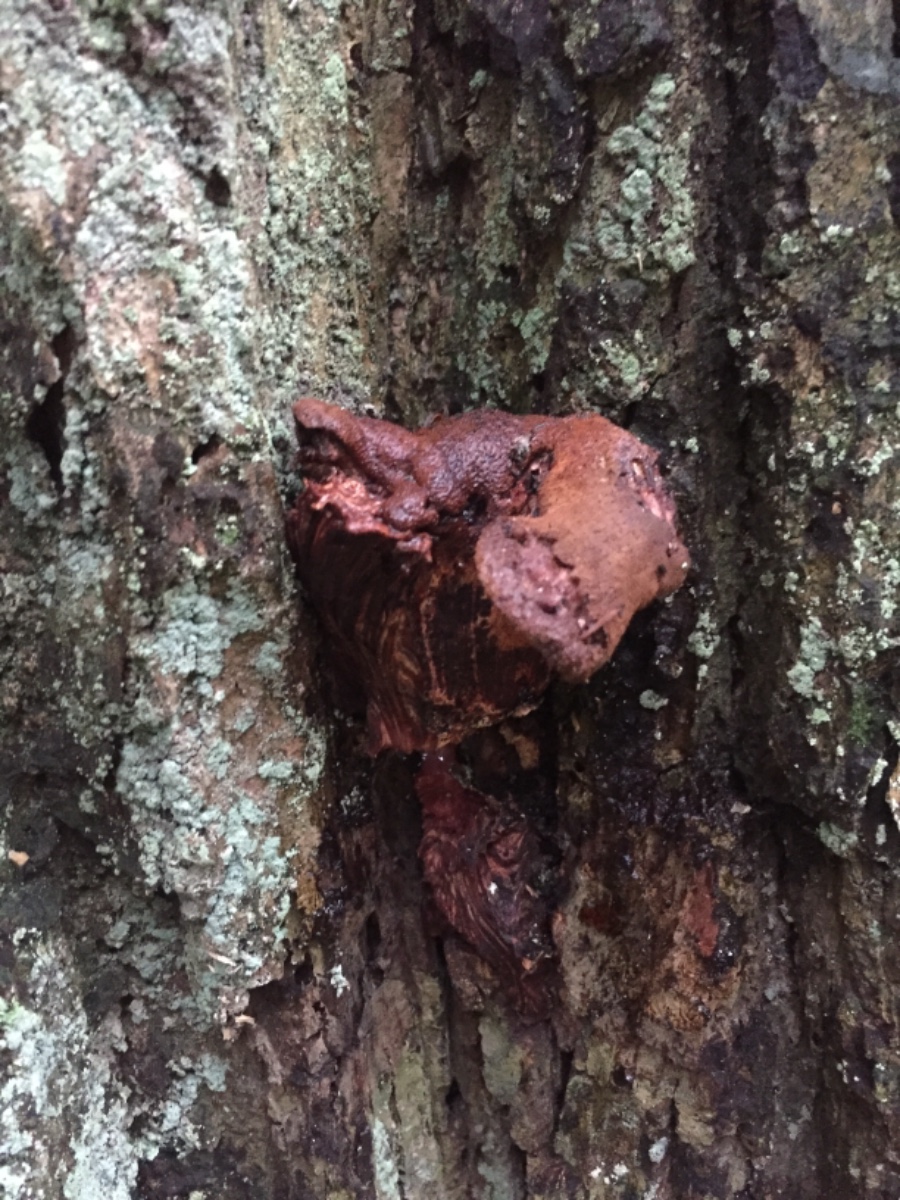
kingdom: Fungi
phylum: Basidiomycota
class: Agaricomycetes
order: Agaricales
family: Fistulinaceae
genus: Fistulina
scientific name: Fistulina hepatica
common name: oksetunge
